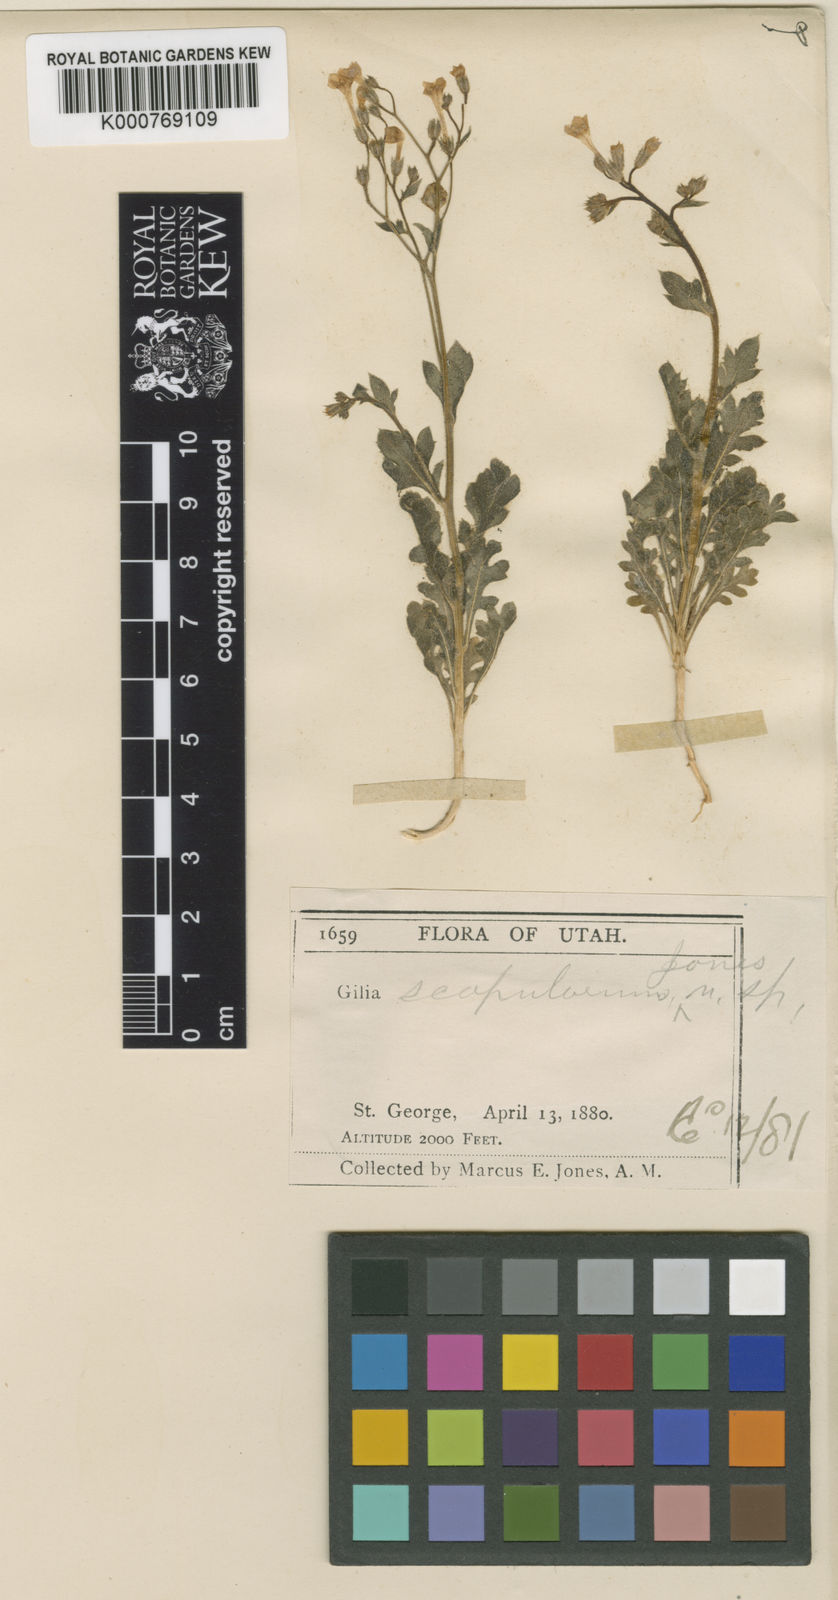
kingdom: Plantae
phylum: Tracheophyta
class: Magnoliopsida
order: Ericales
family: Polemoniaceae
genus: Gilia
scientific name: Gilia scopulorum
